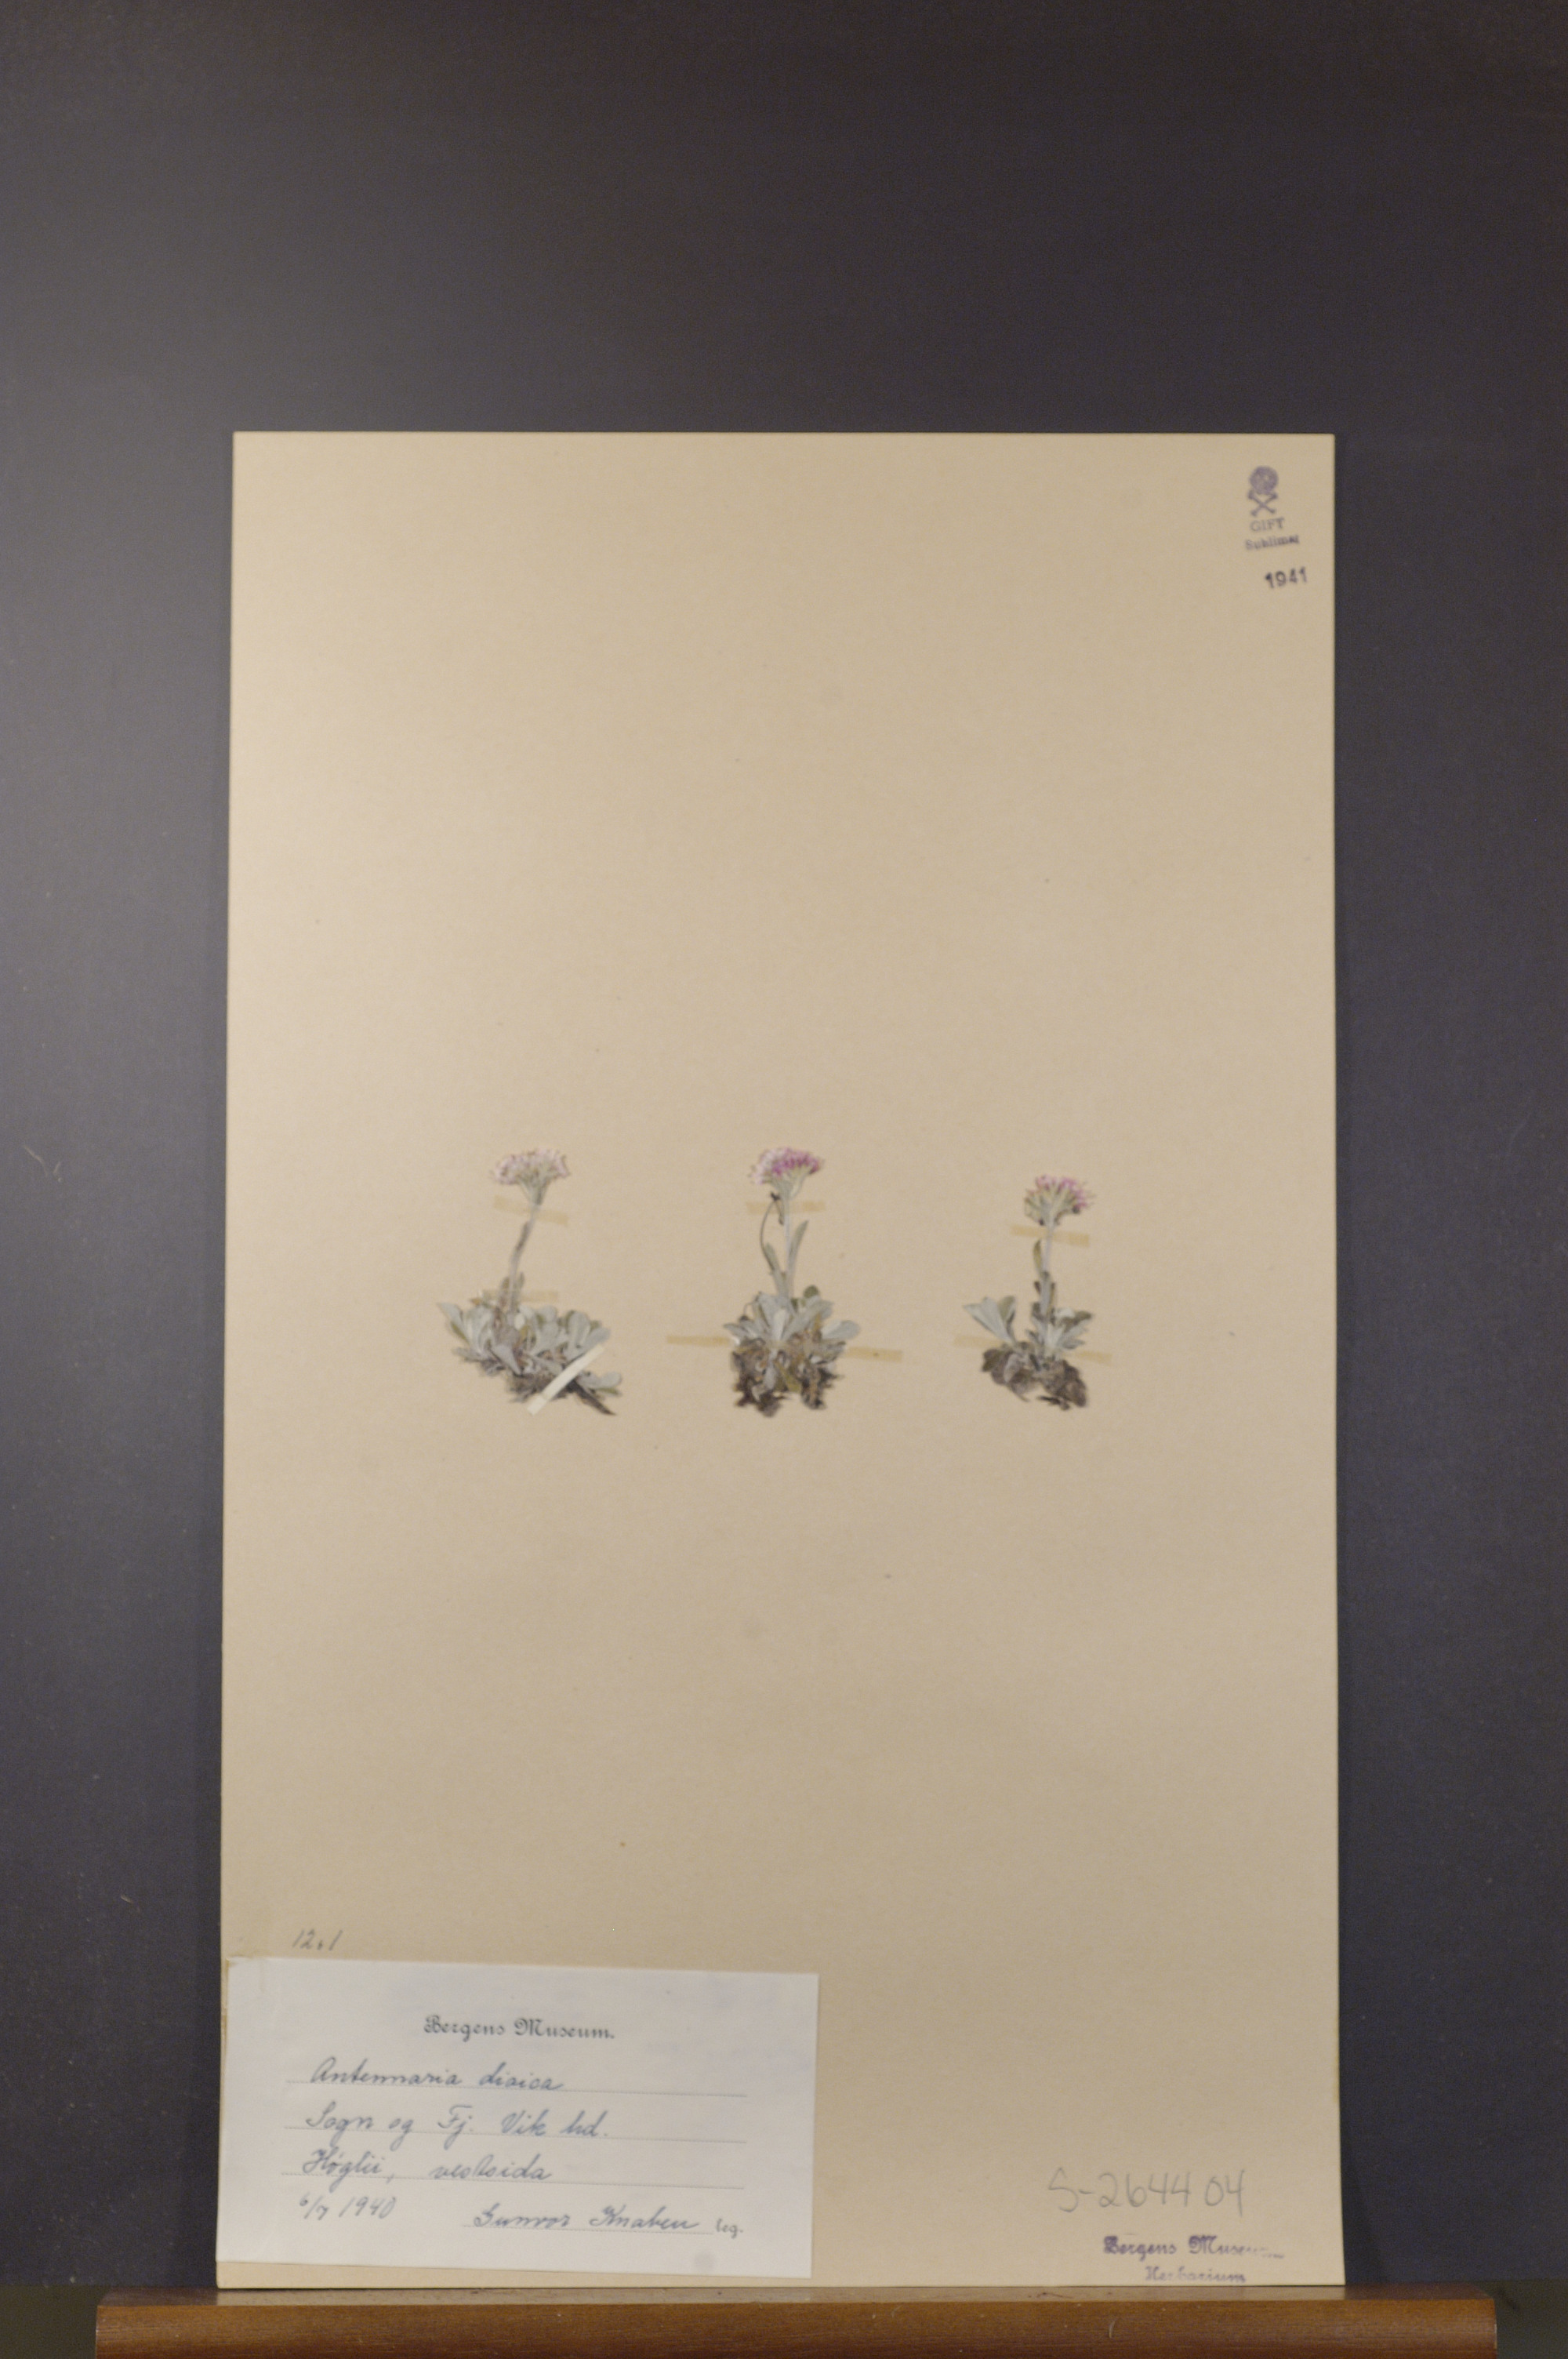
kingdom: Plantae
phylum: Tracheophyta
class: Magnoliopsida
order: Asterales
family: Asteraceae
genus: Antennaria
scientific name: Antennaria dioica
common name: Mountain everlasting
